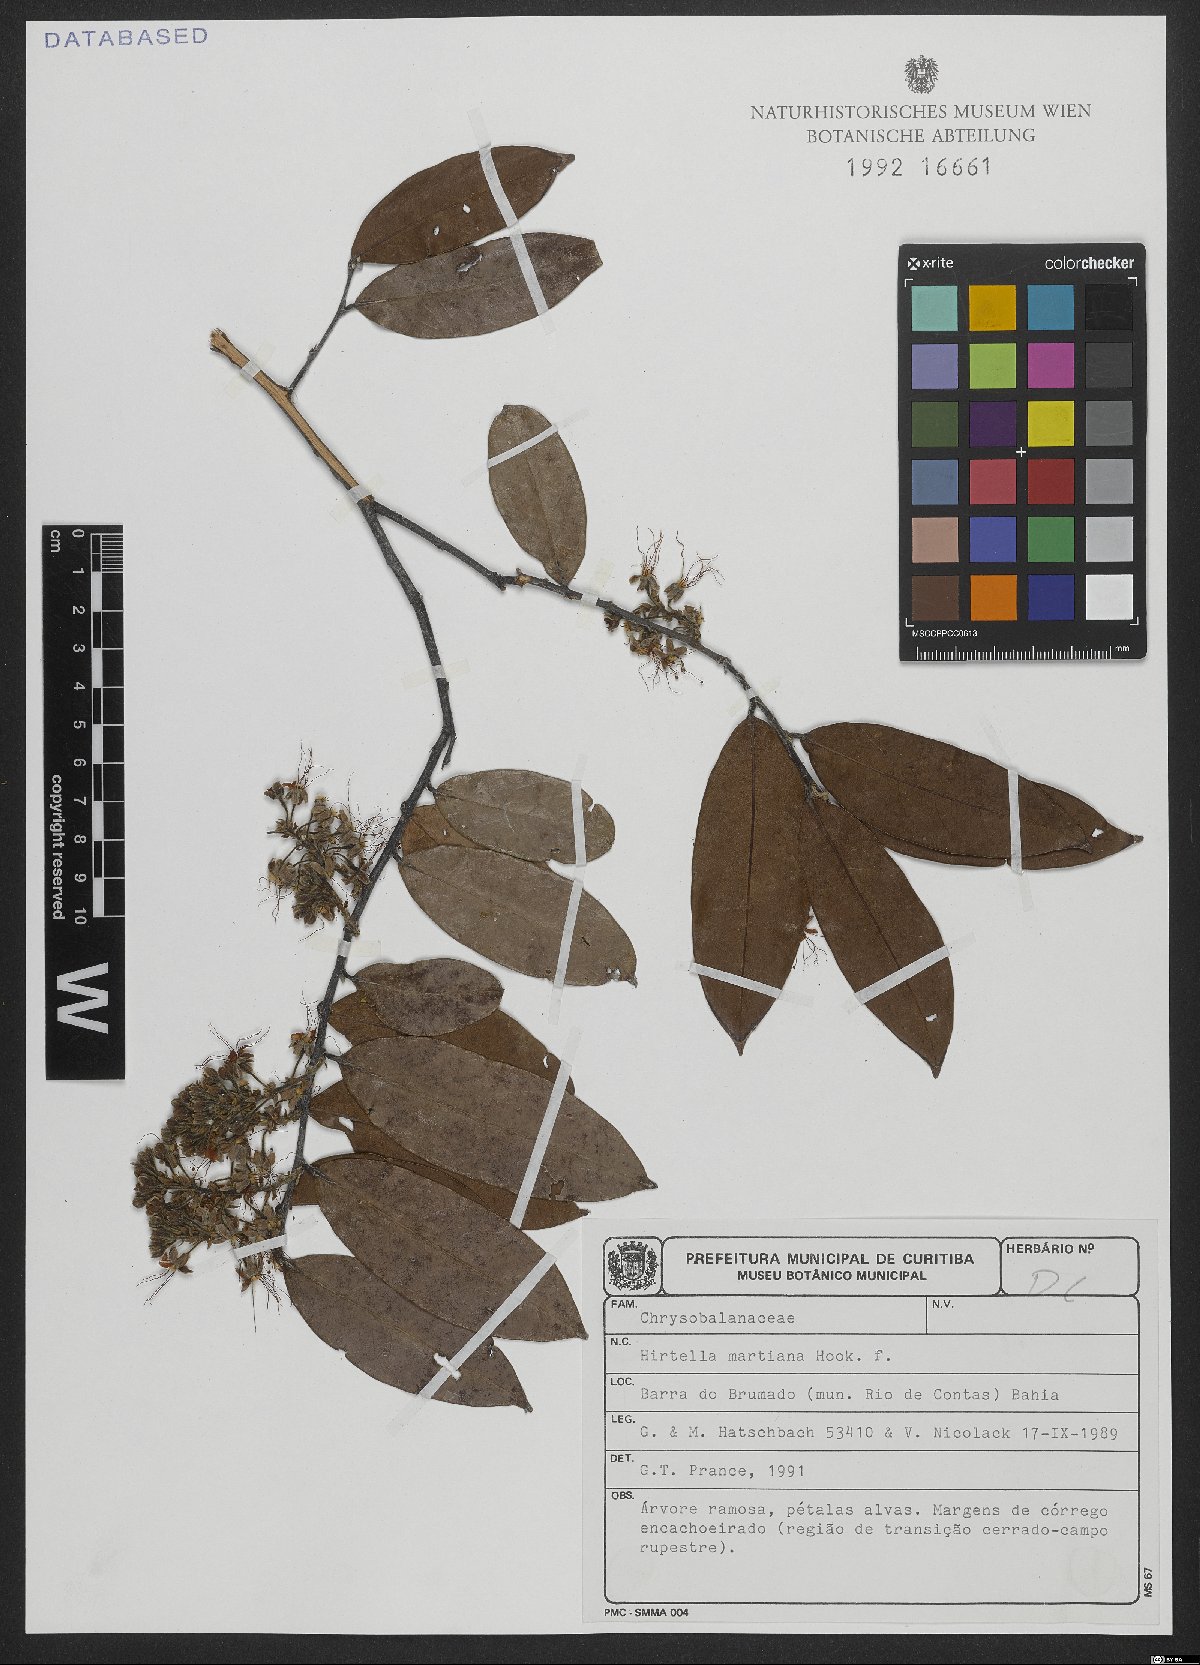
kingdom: Plantae
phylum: Tracheophyta
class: Magnoliopsida
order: Malpighiales
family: Chrysobalanaceae
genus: Hirtella
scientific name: Hirtella martiana
